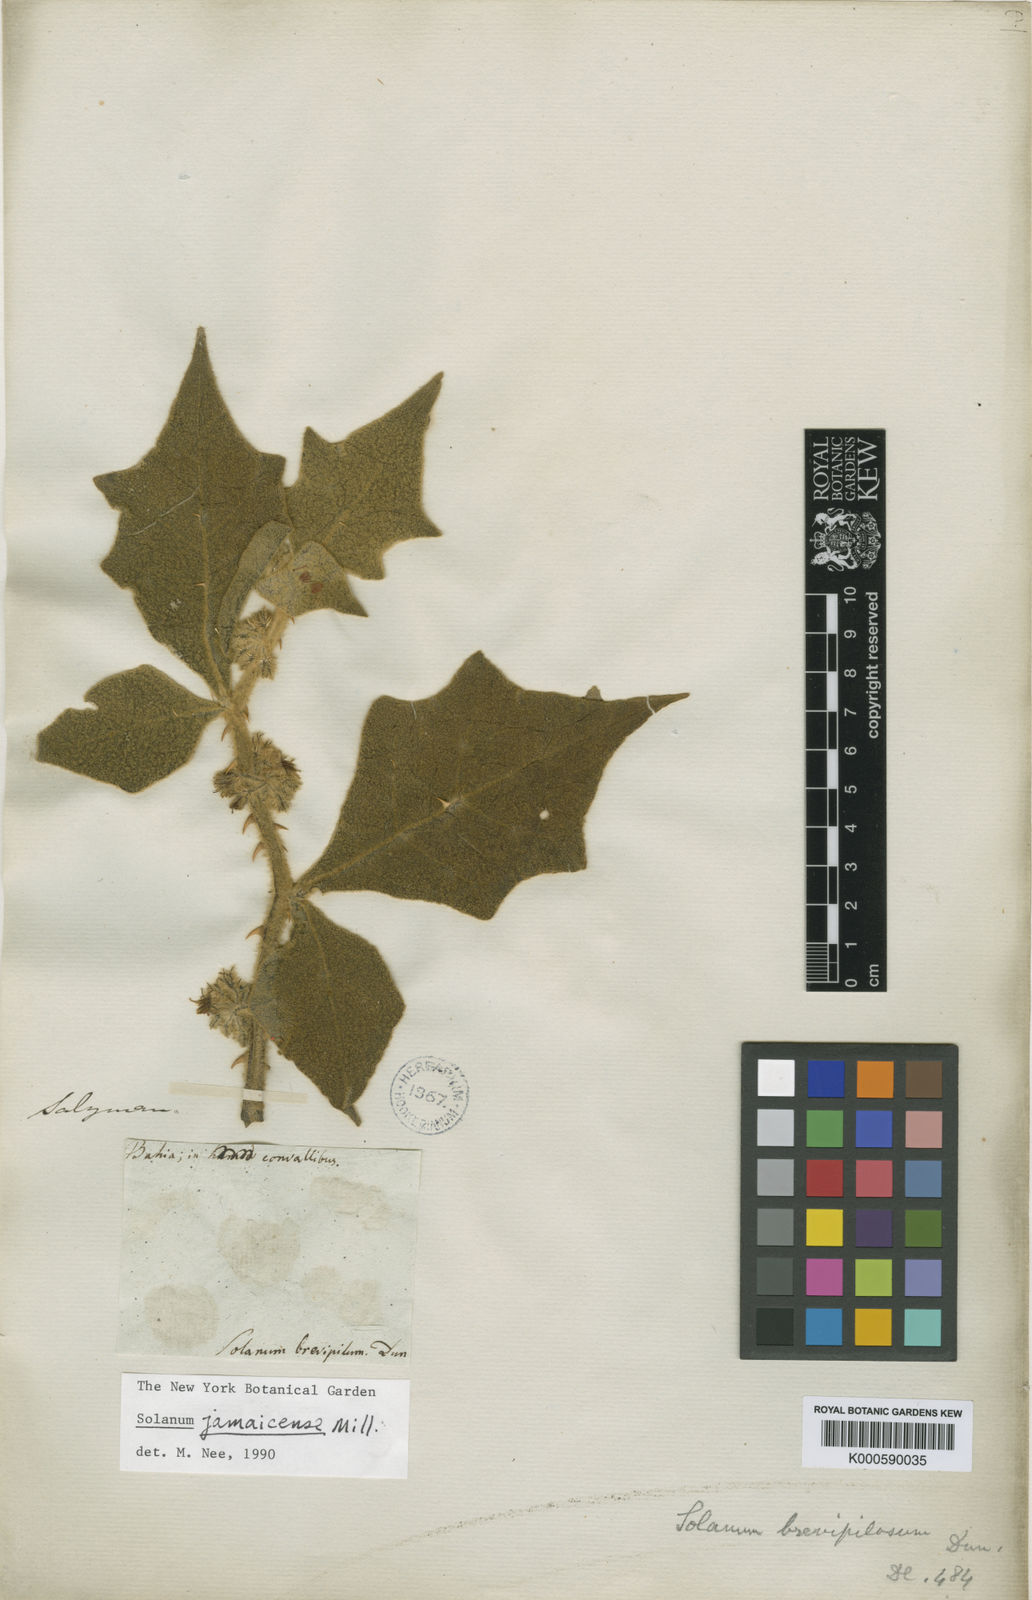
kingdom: Plantae
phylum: Tracheophyta
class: Magnoliopsida
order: Solanales
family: Solanaceae
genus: Solanum
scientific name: Solanum jamaicense
